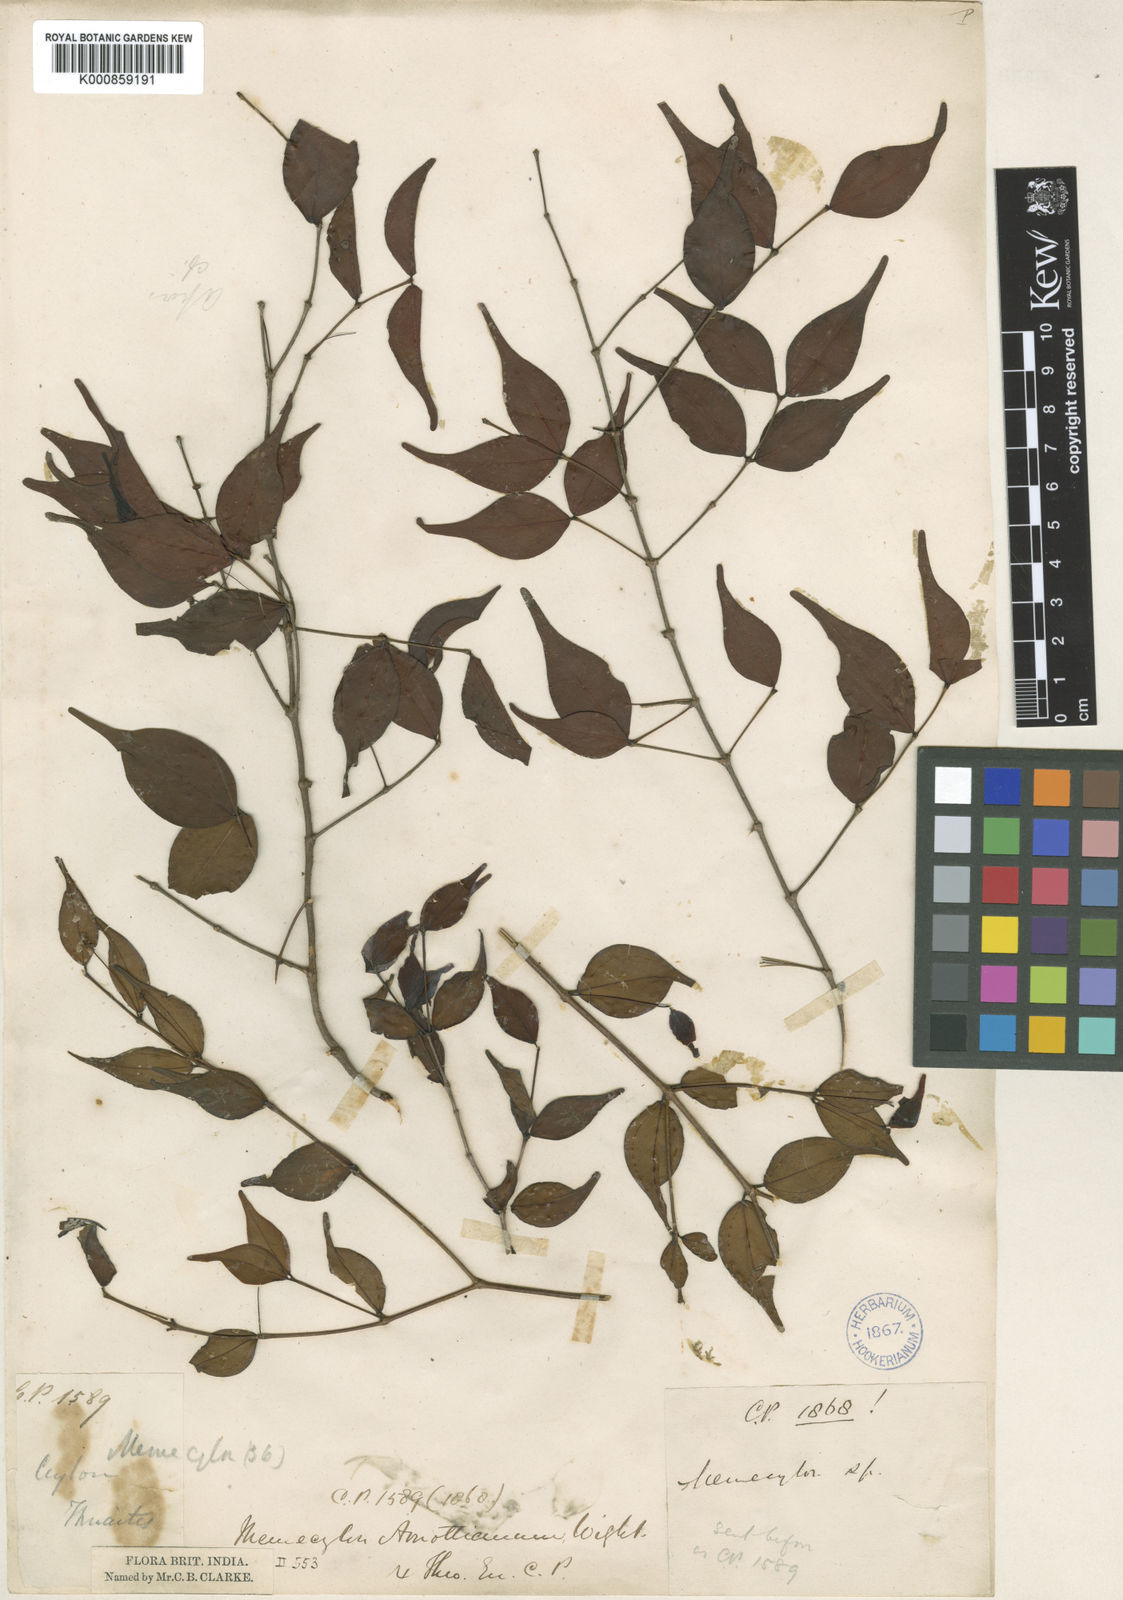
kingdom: Plantae
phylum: Tracheophyta
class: Magnoliopsida
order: Myrtales
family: Melastomataceae
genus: Lijndenia
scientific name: Lijndenia capitellata
